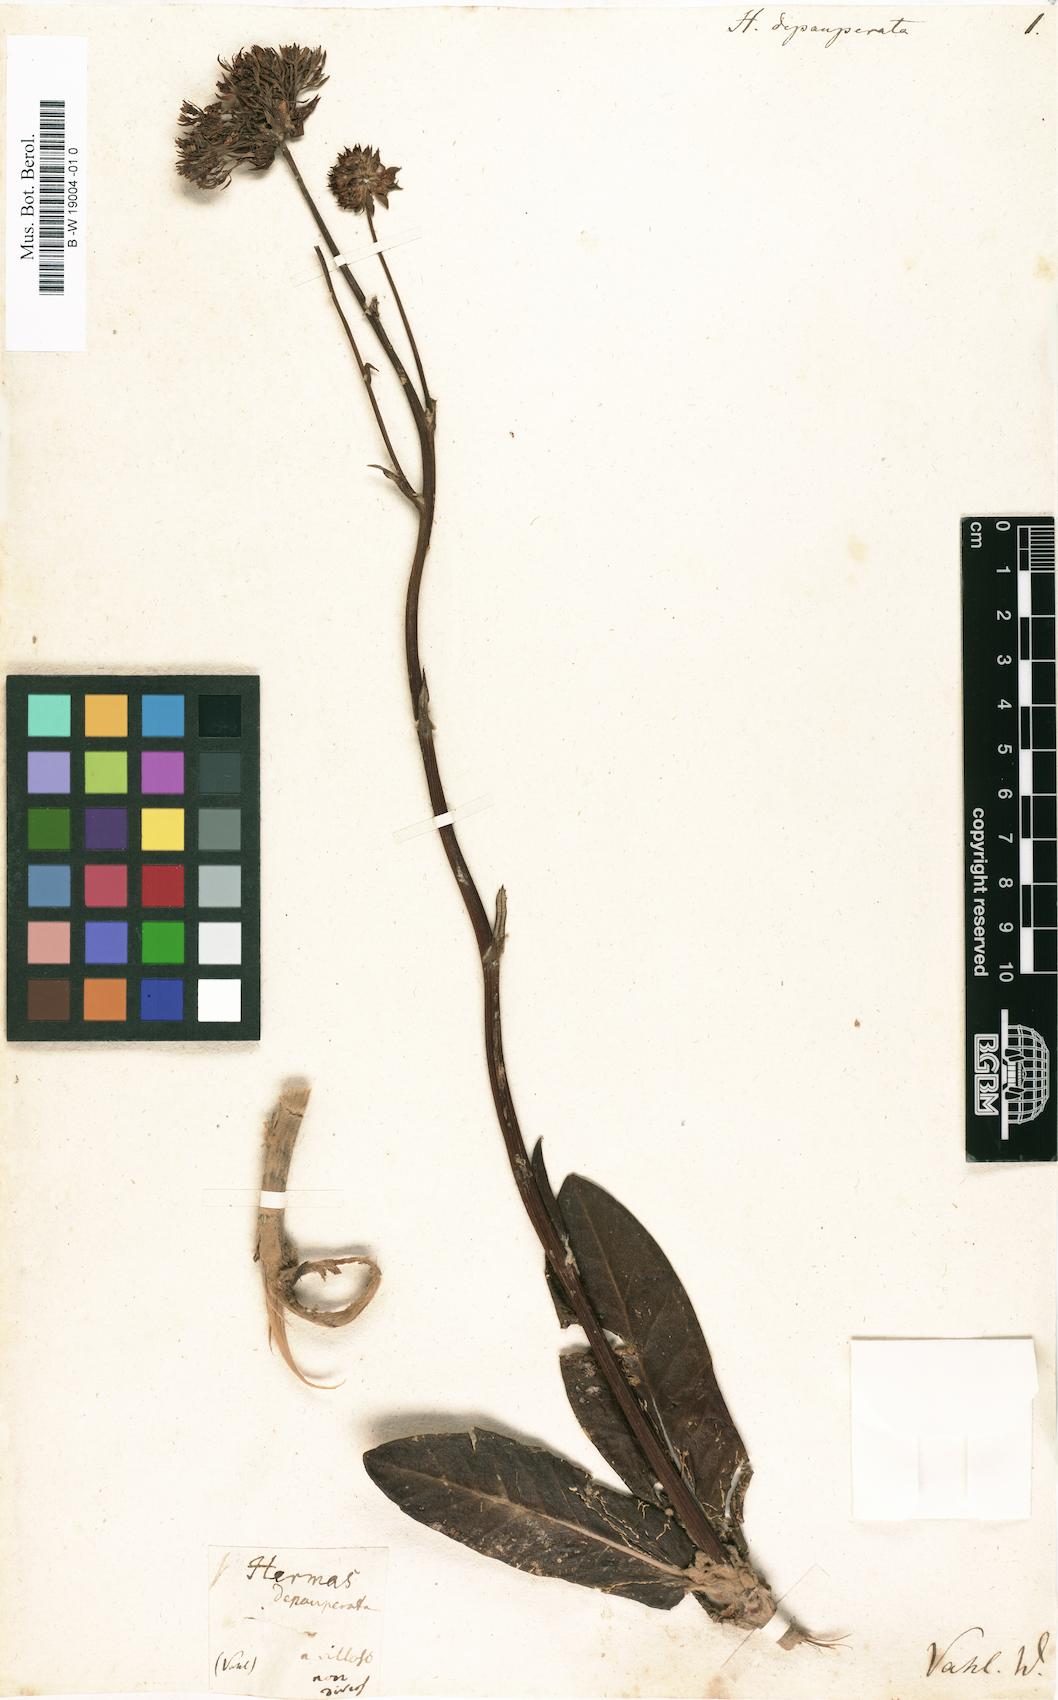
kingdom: Plantae
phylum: Tracheophyta
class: Magnoliopsida
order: Apiales
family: Apiaceae
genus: Hermas
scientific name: Hermas villosa
